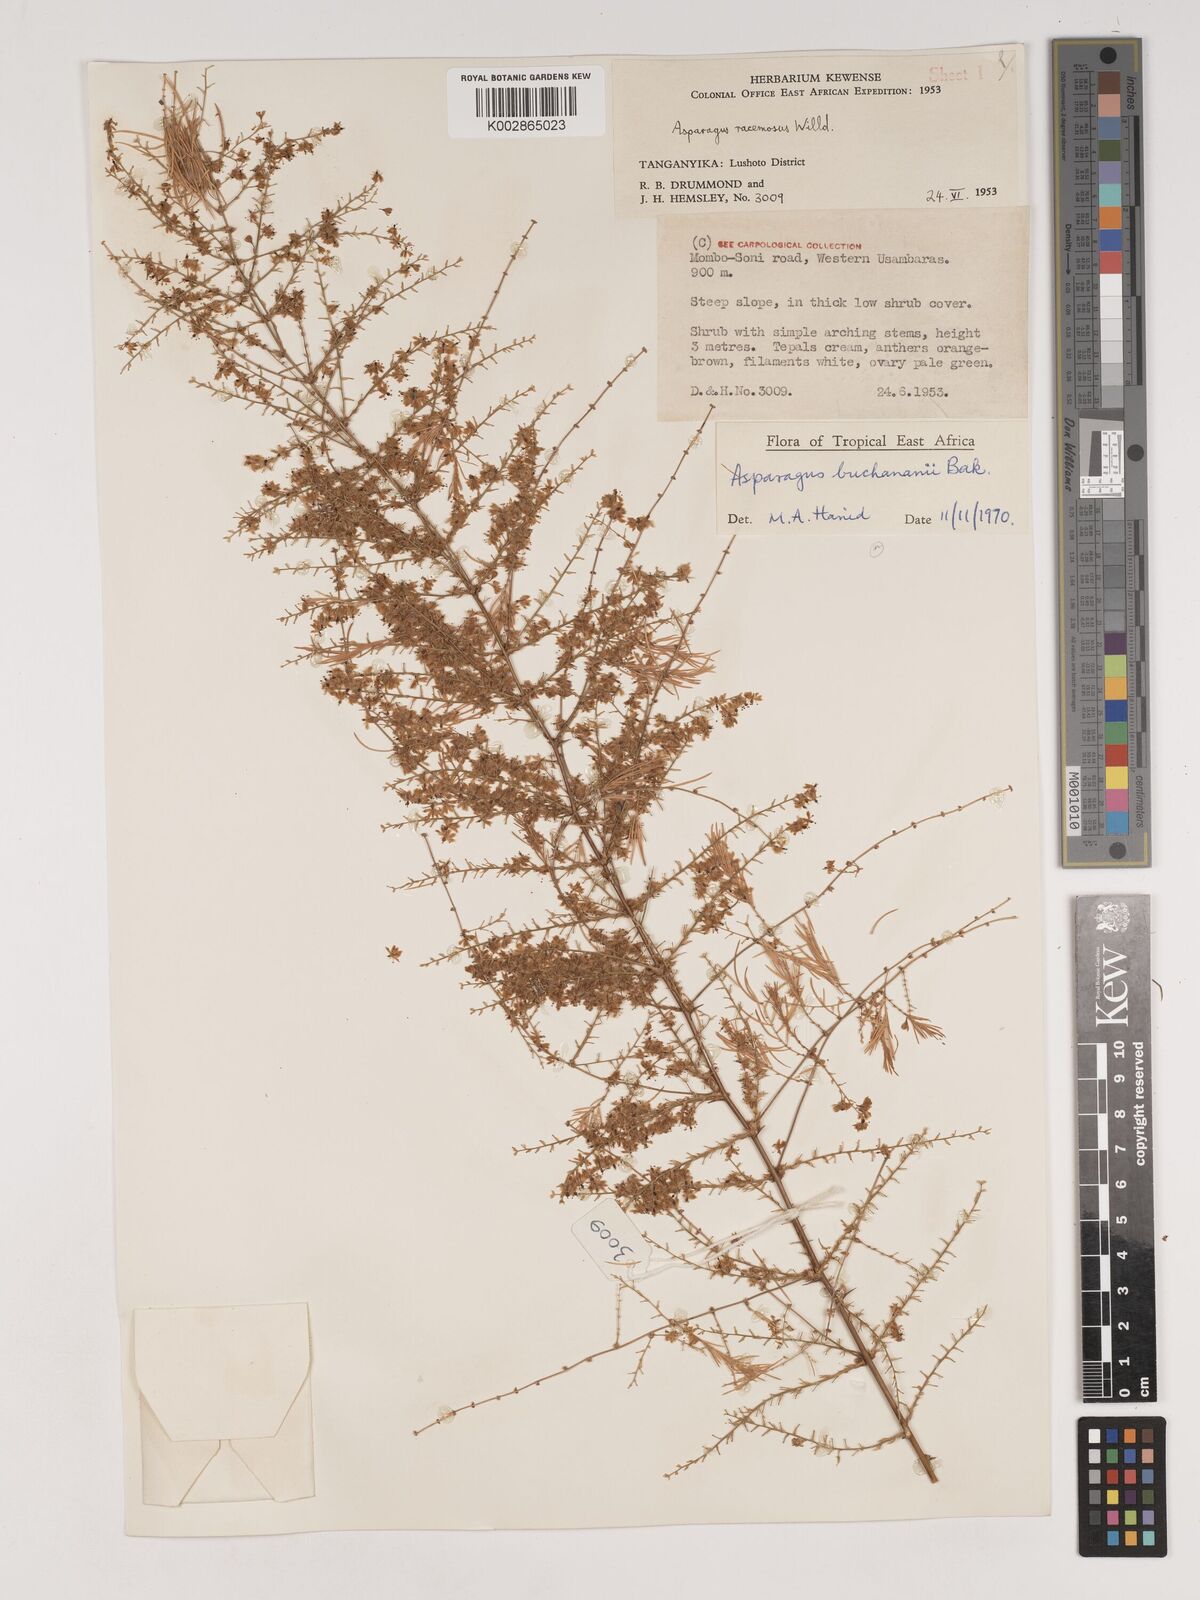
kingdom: Plantae
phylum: Tracheophyta
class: Liliopsida
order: Asparagales
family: Asparagaceae
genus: Asparagus
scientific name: Asparagus buchananii
